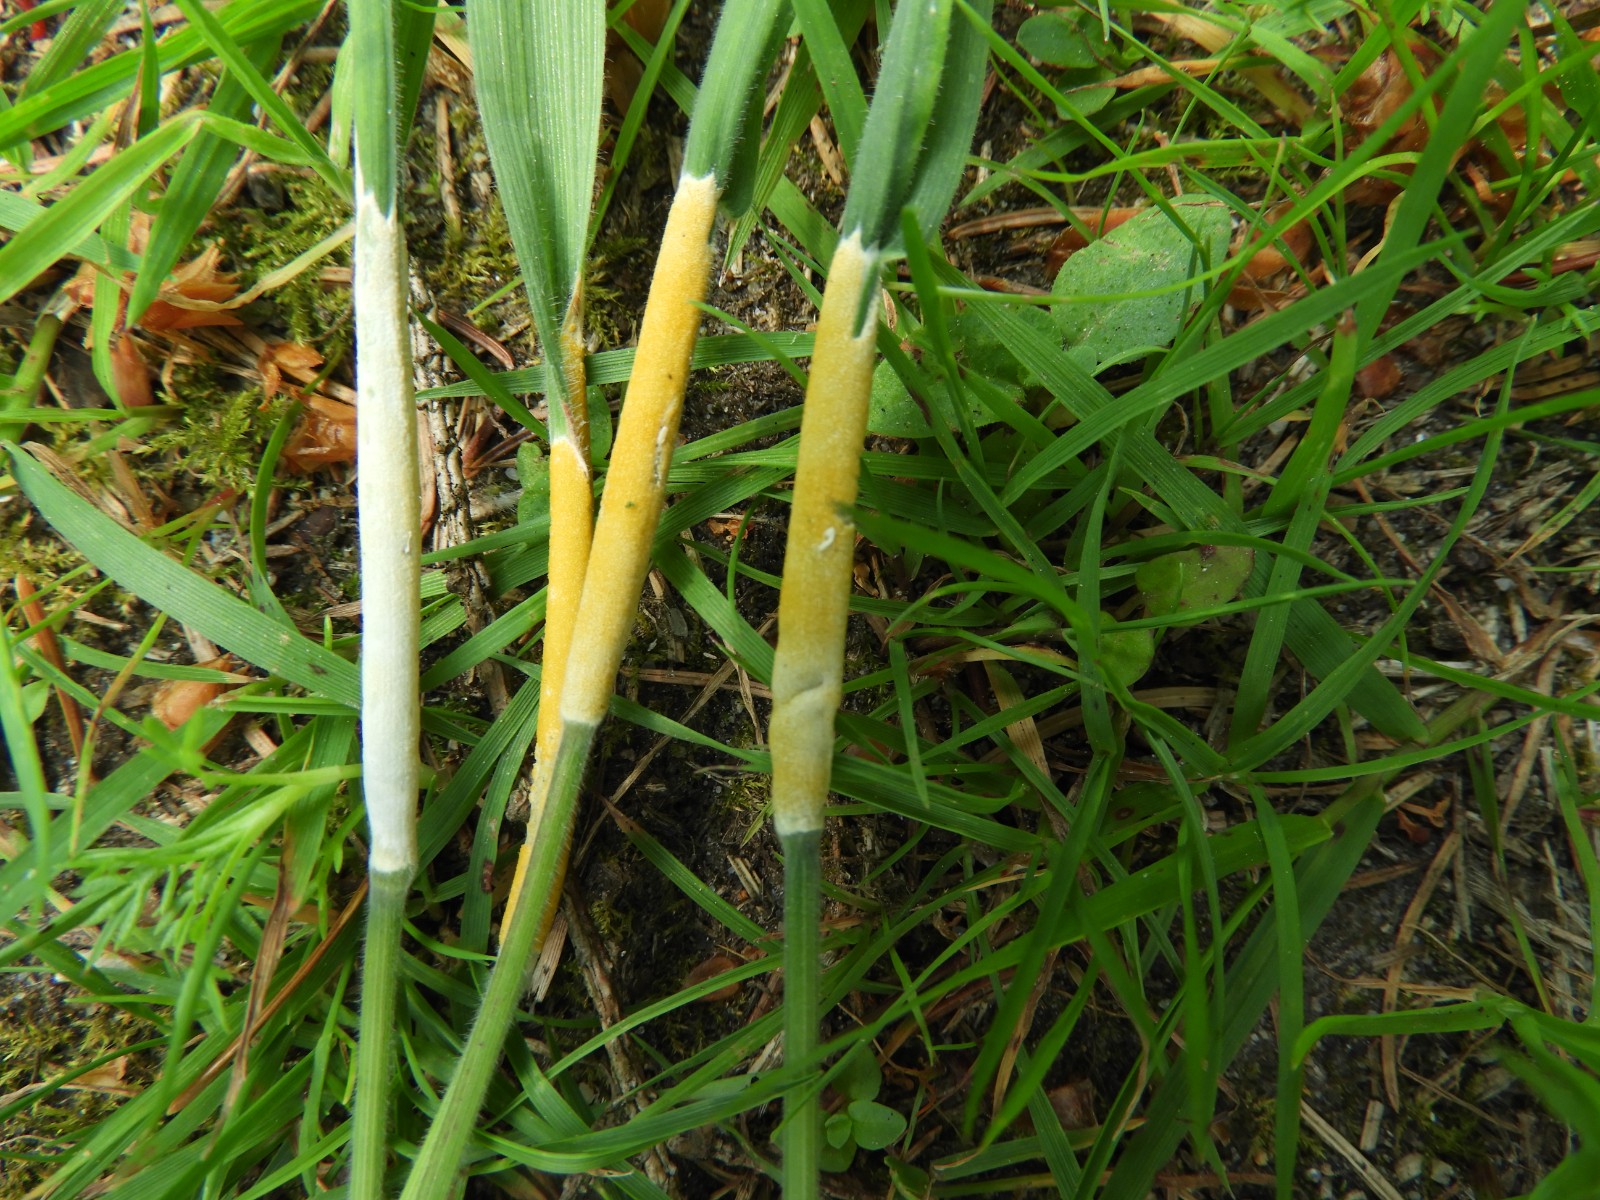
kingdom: Fungi
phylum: Ascomycota
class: Sordariomycetes
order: Hypocreales
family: Clavicipitaceae
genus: Epichloe
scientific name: Epichloe clarkii
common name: fløjlsgræs-kernerør
